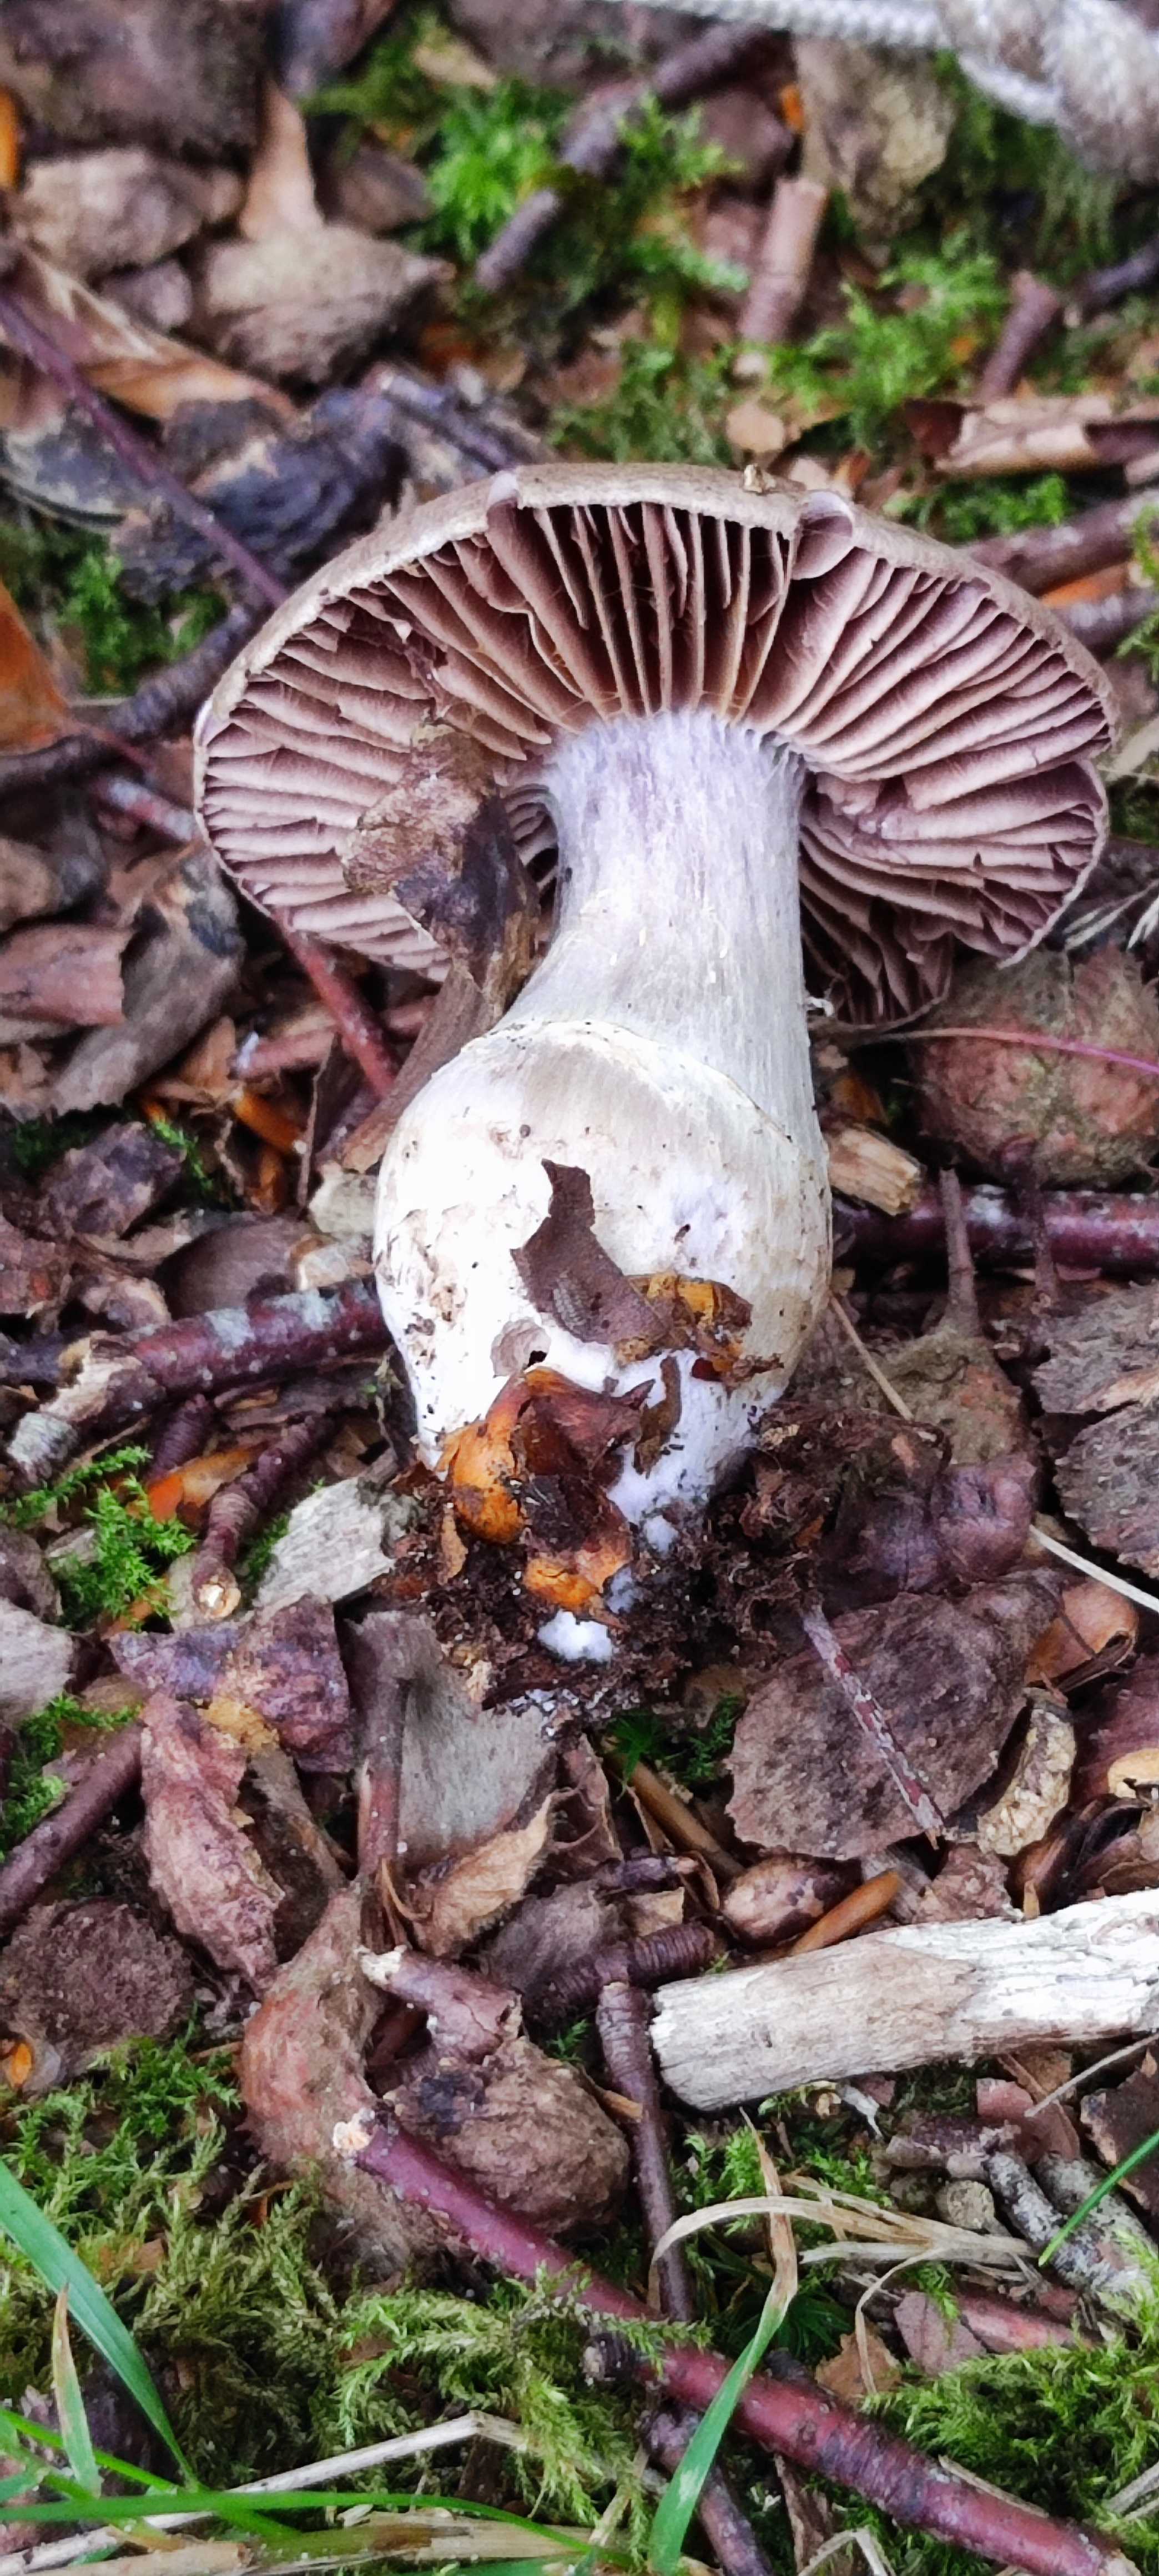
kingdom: Fungi
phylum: Basidiomycota
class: Agaricomycetes
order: Agaricales
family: Cortinariaceae
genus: Cortinarius
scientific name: Cortinarius torvus
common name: champignonagtig slørhat
